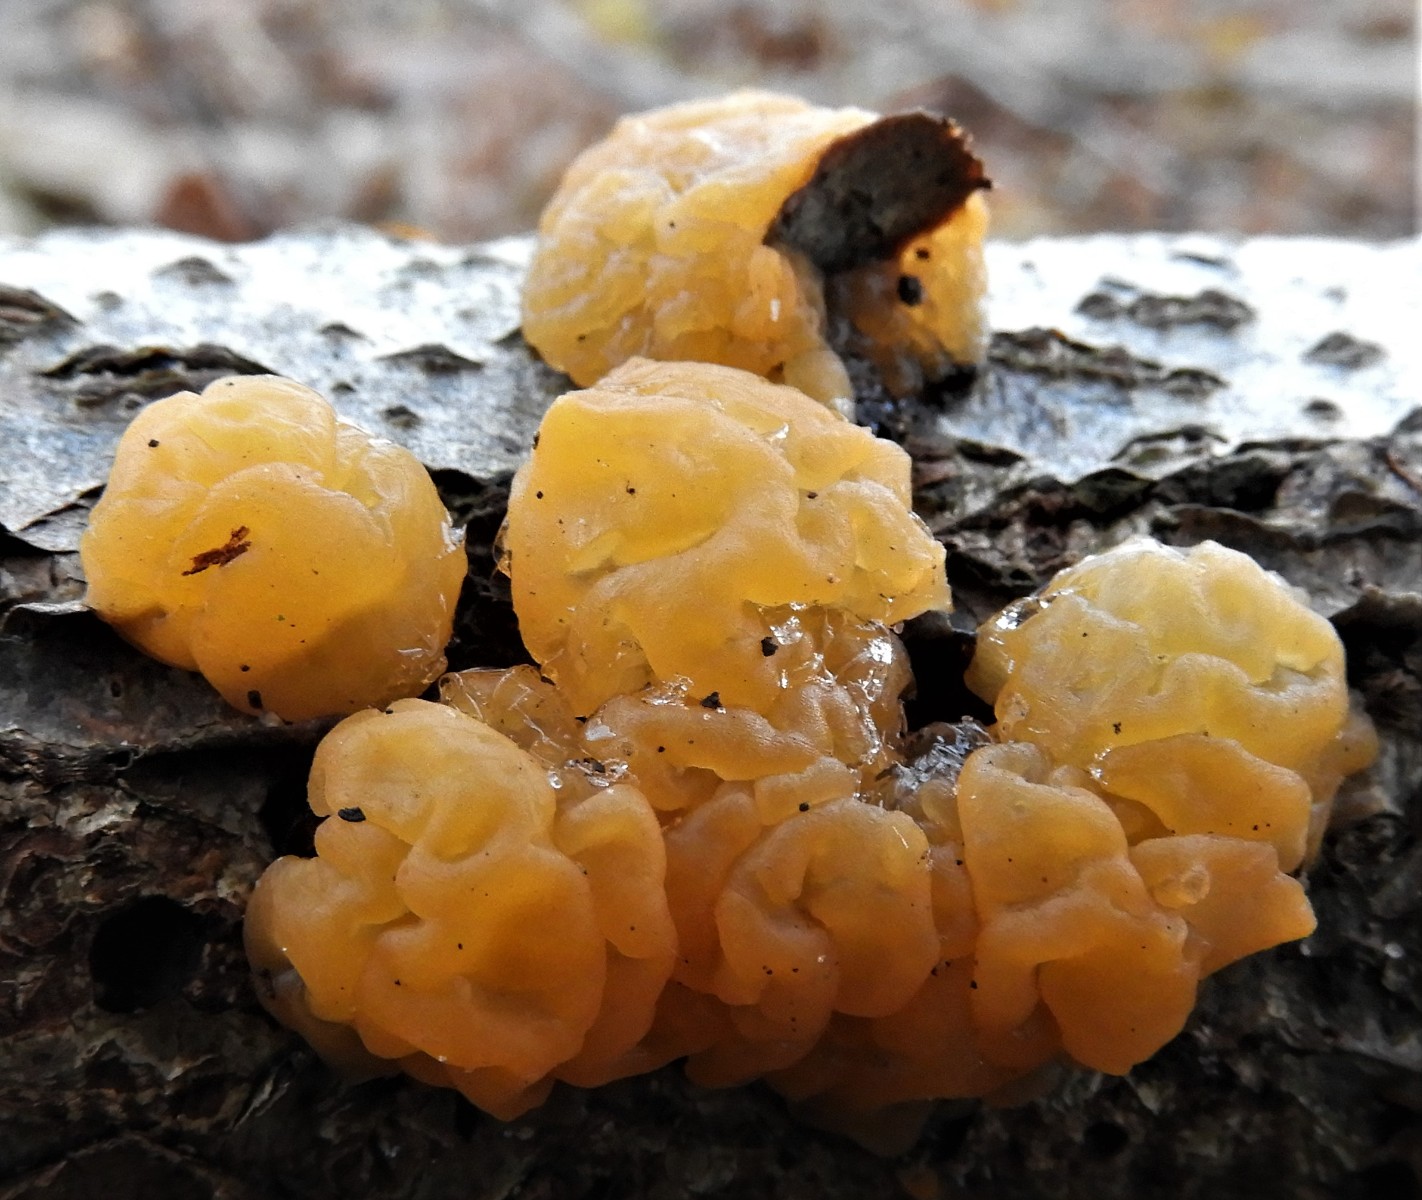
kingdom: Fungi
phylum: Basidiomycota
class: Dacrymycetes
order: Dacrymycetales
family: Dacrymycetaceae
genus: Dacrymyces
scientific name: Dacrymyces lacrymalis
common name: rynket tåresvamp
